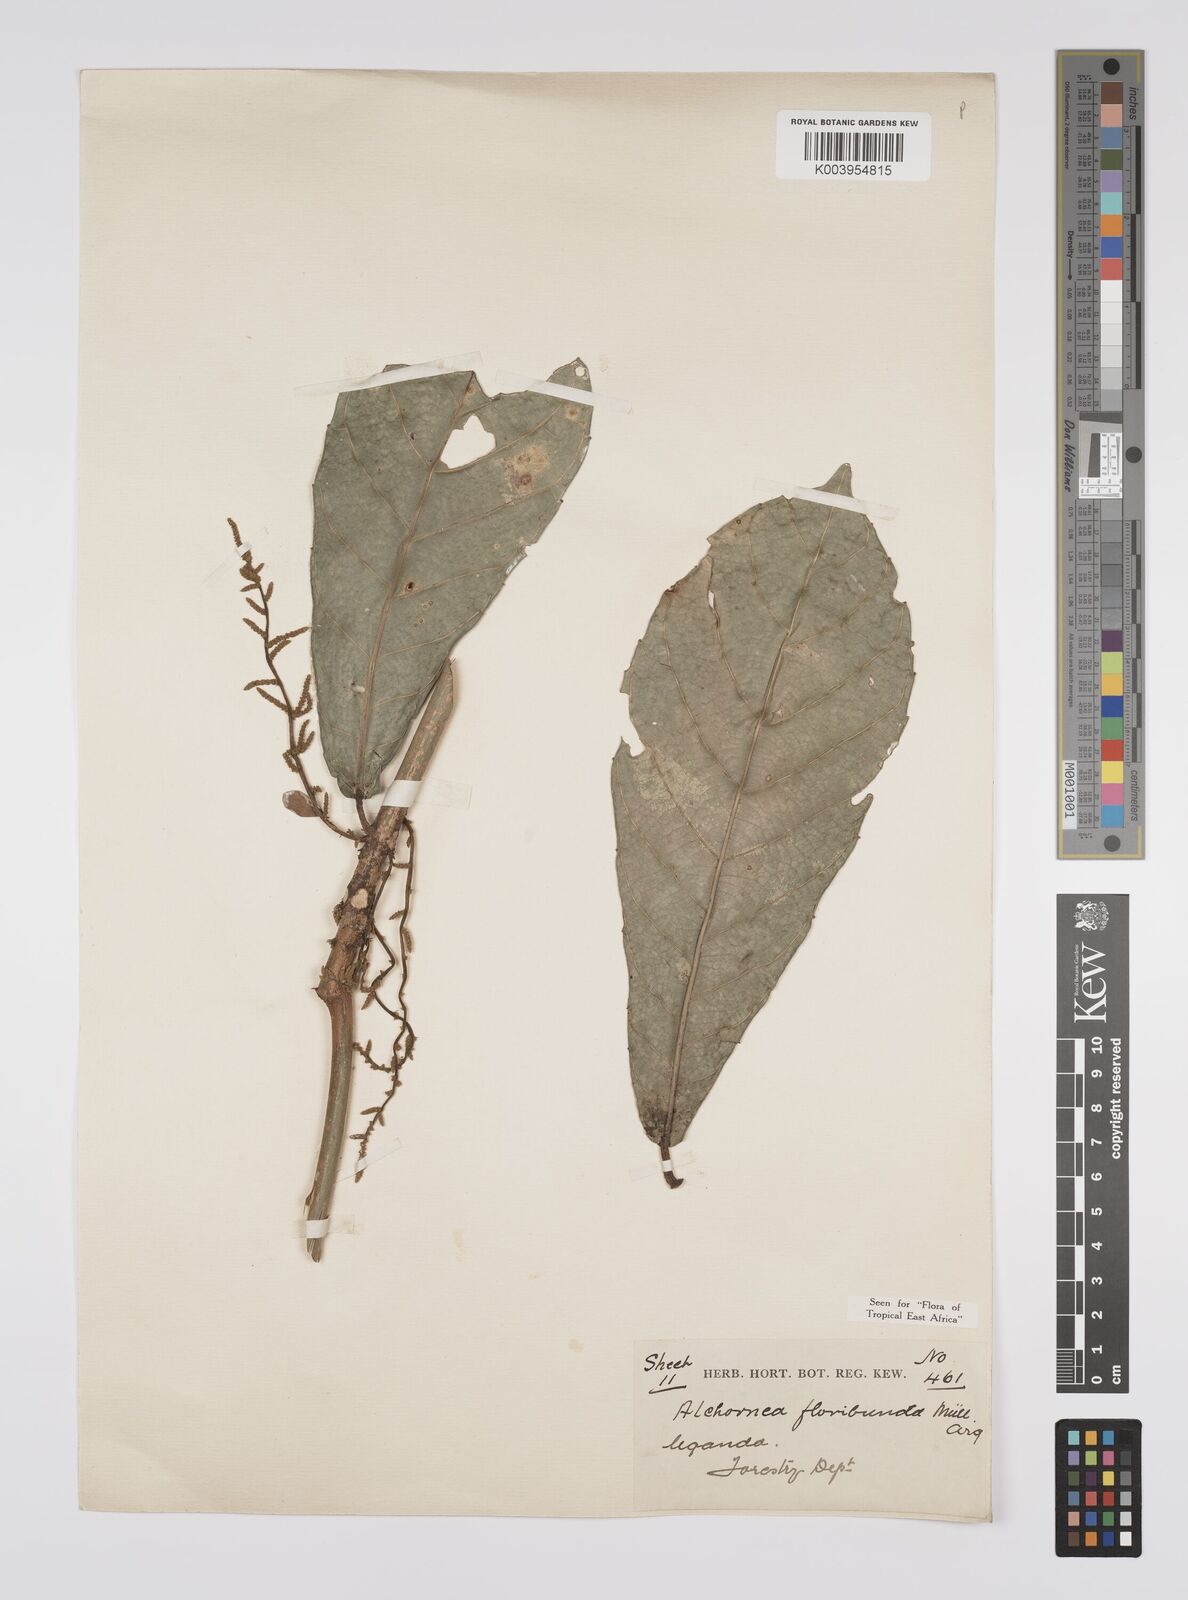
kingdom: Plantae
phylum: Tracheophyta
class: Magnoliopsida
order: Malpighiales
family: Euphorbiaceae
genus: Alchornea
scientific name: Alchornea floribunda
